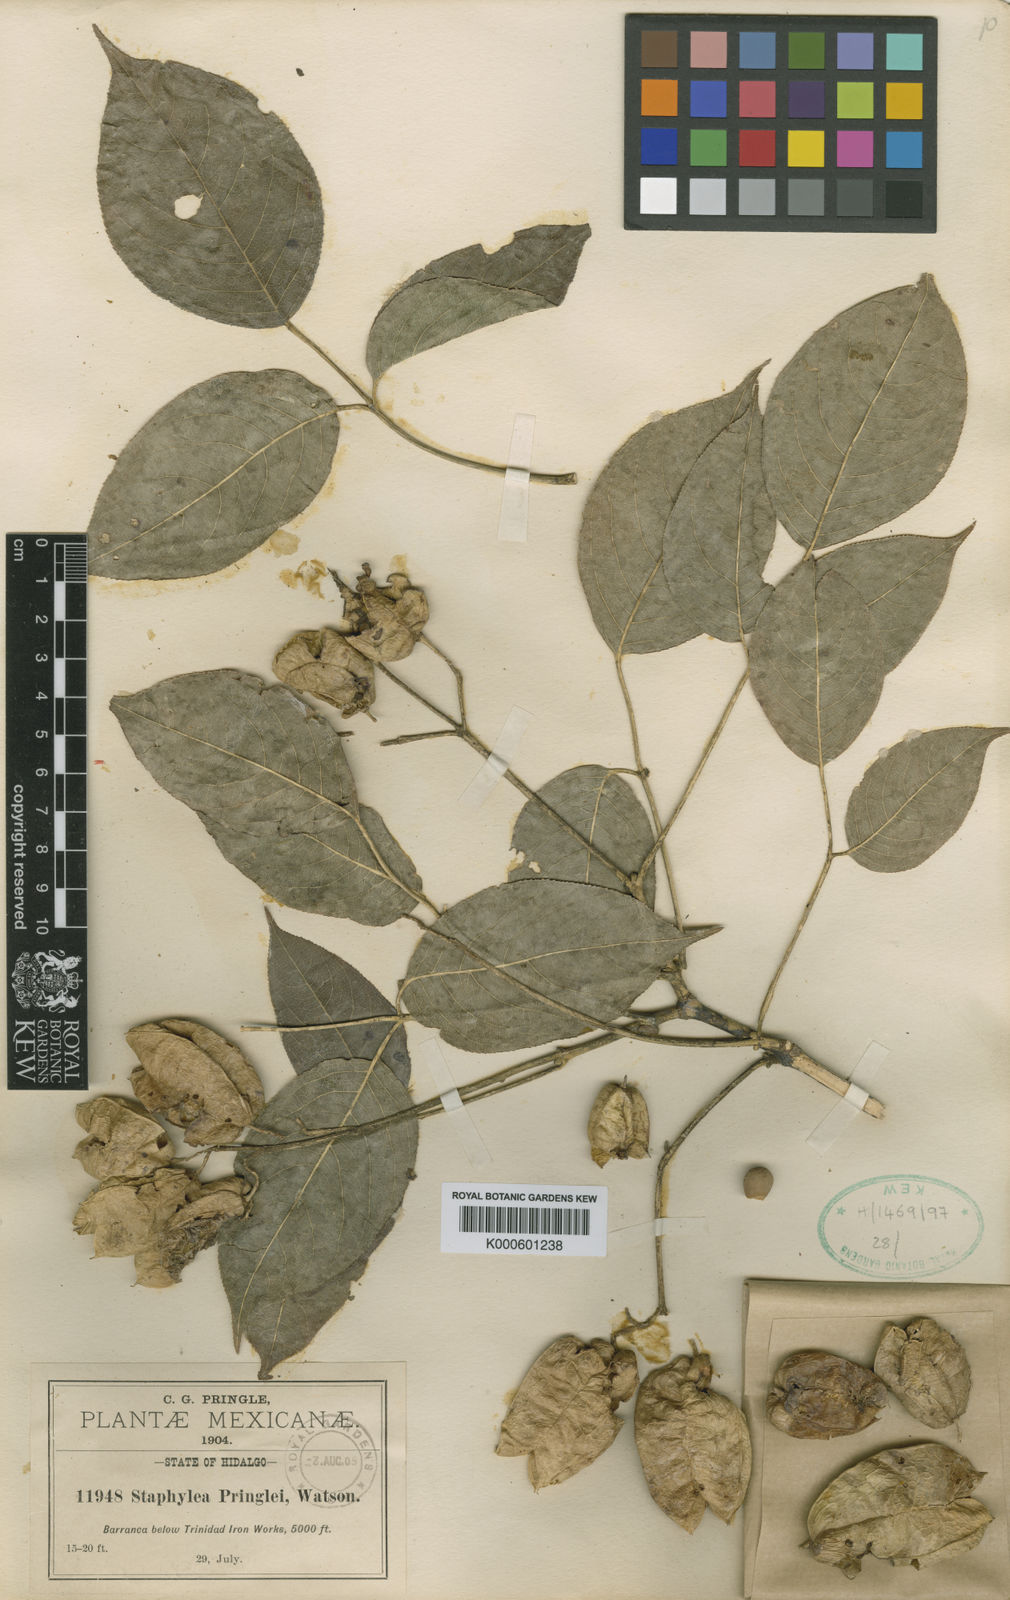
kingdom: Plantae
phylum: Tracheophyta
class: Magnoliopsida
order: Crossosomatales
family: Staphyleaceae
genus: Staphylea
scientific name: Staphylea pringlei
